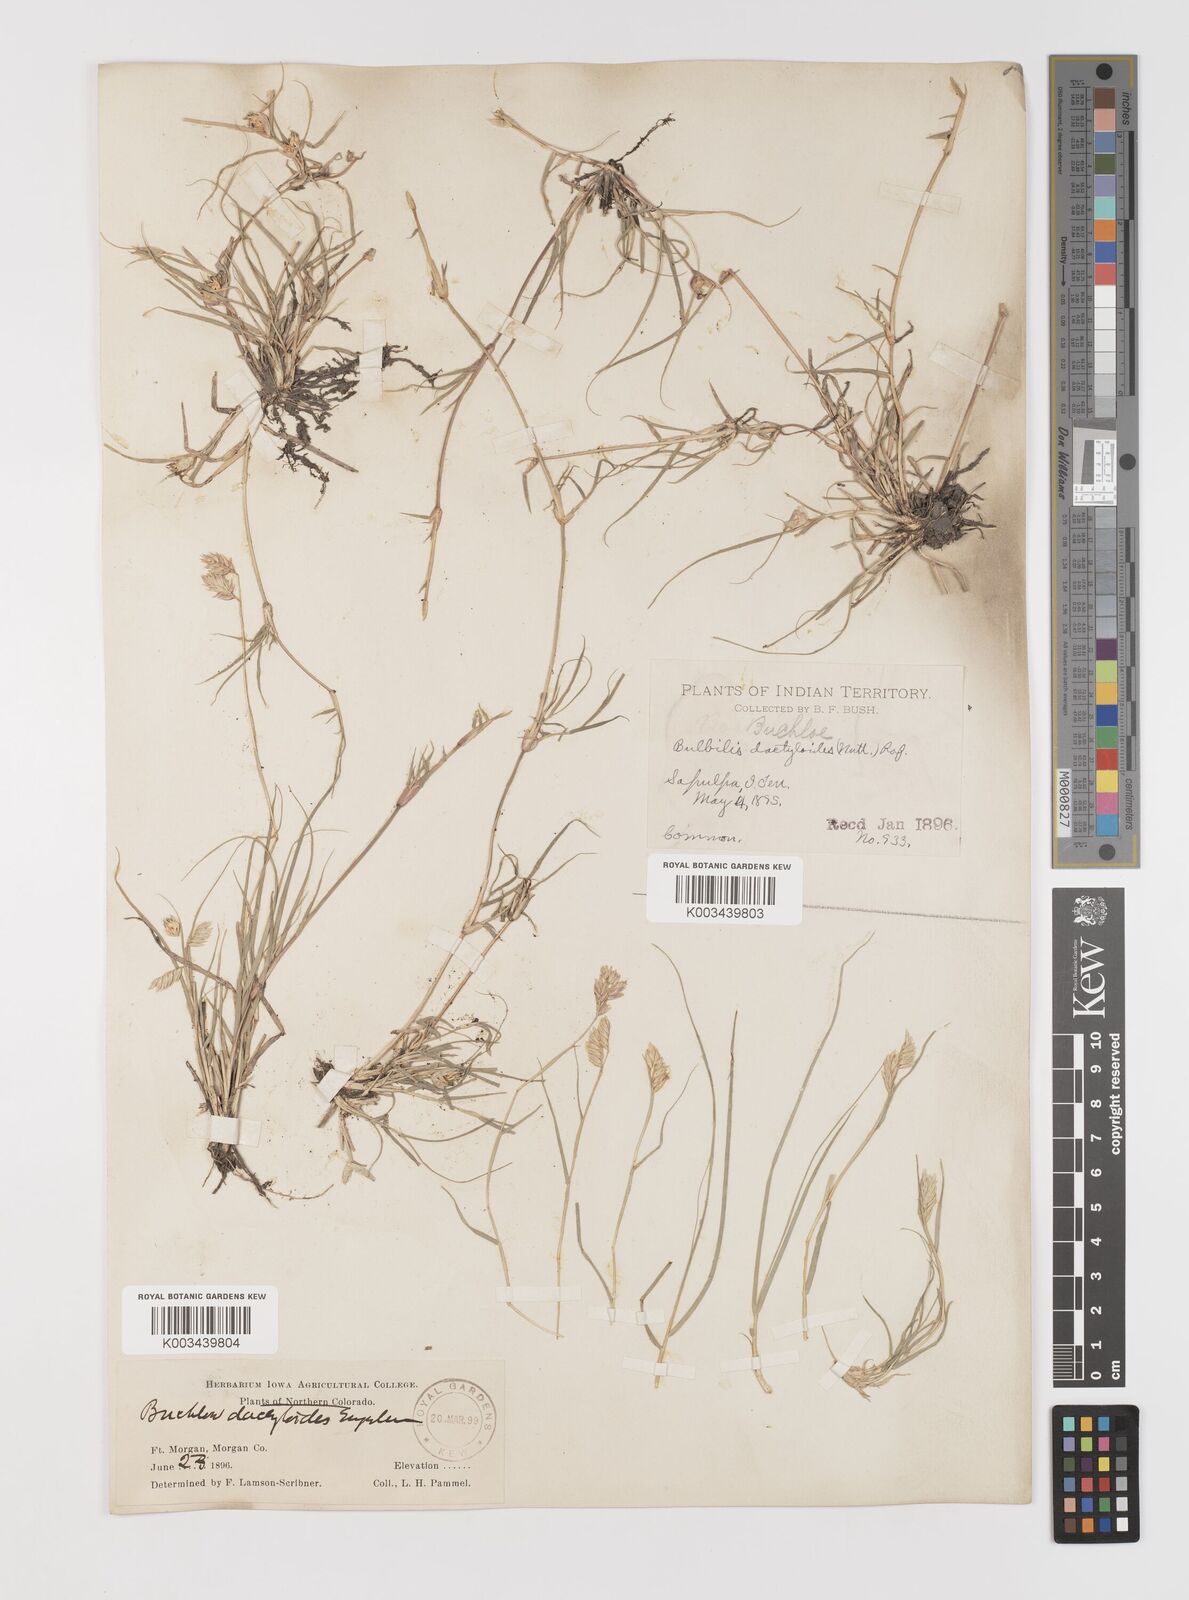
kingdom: Plantae
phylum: Tracheophyta
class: Liliopsida
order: Poales
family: Poaceae
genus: Bouteloua
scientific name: Bouteloua dactyloides
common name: Buffalo grass
